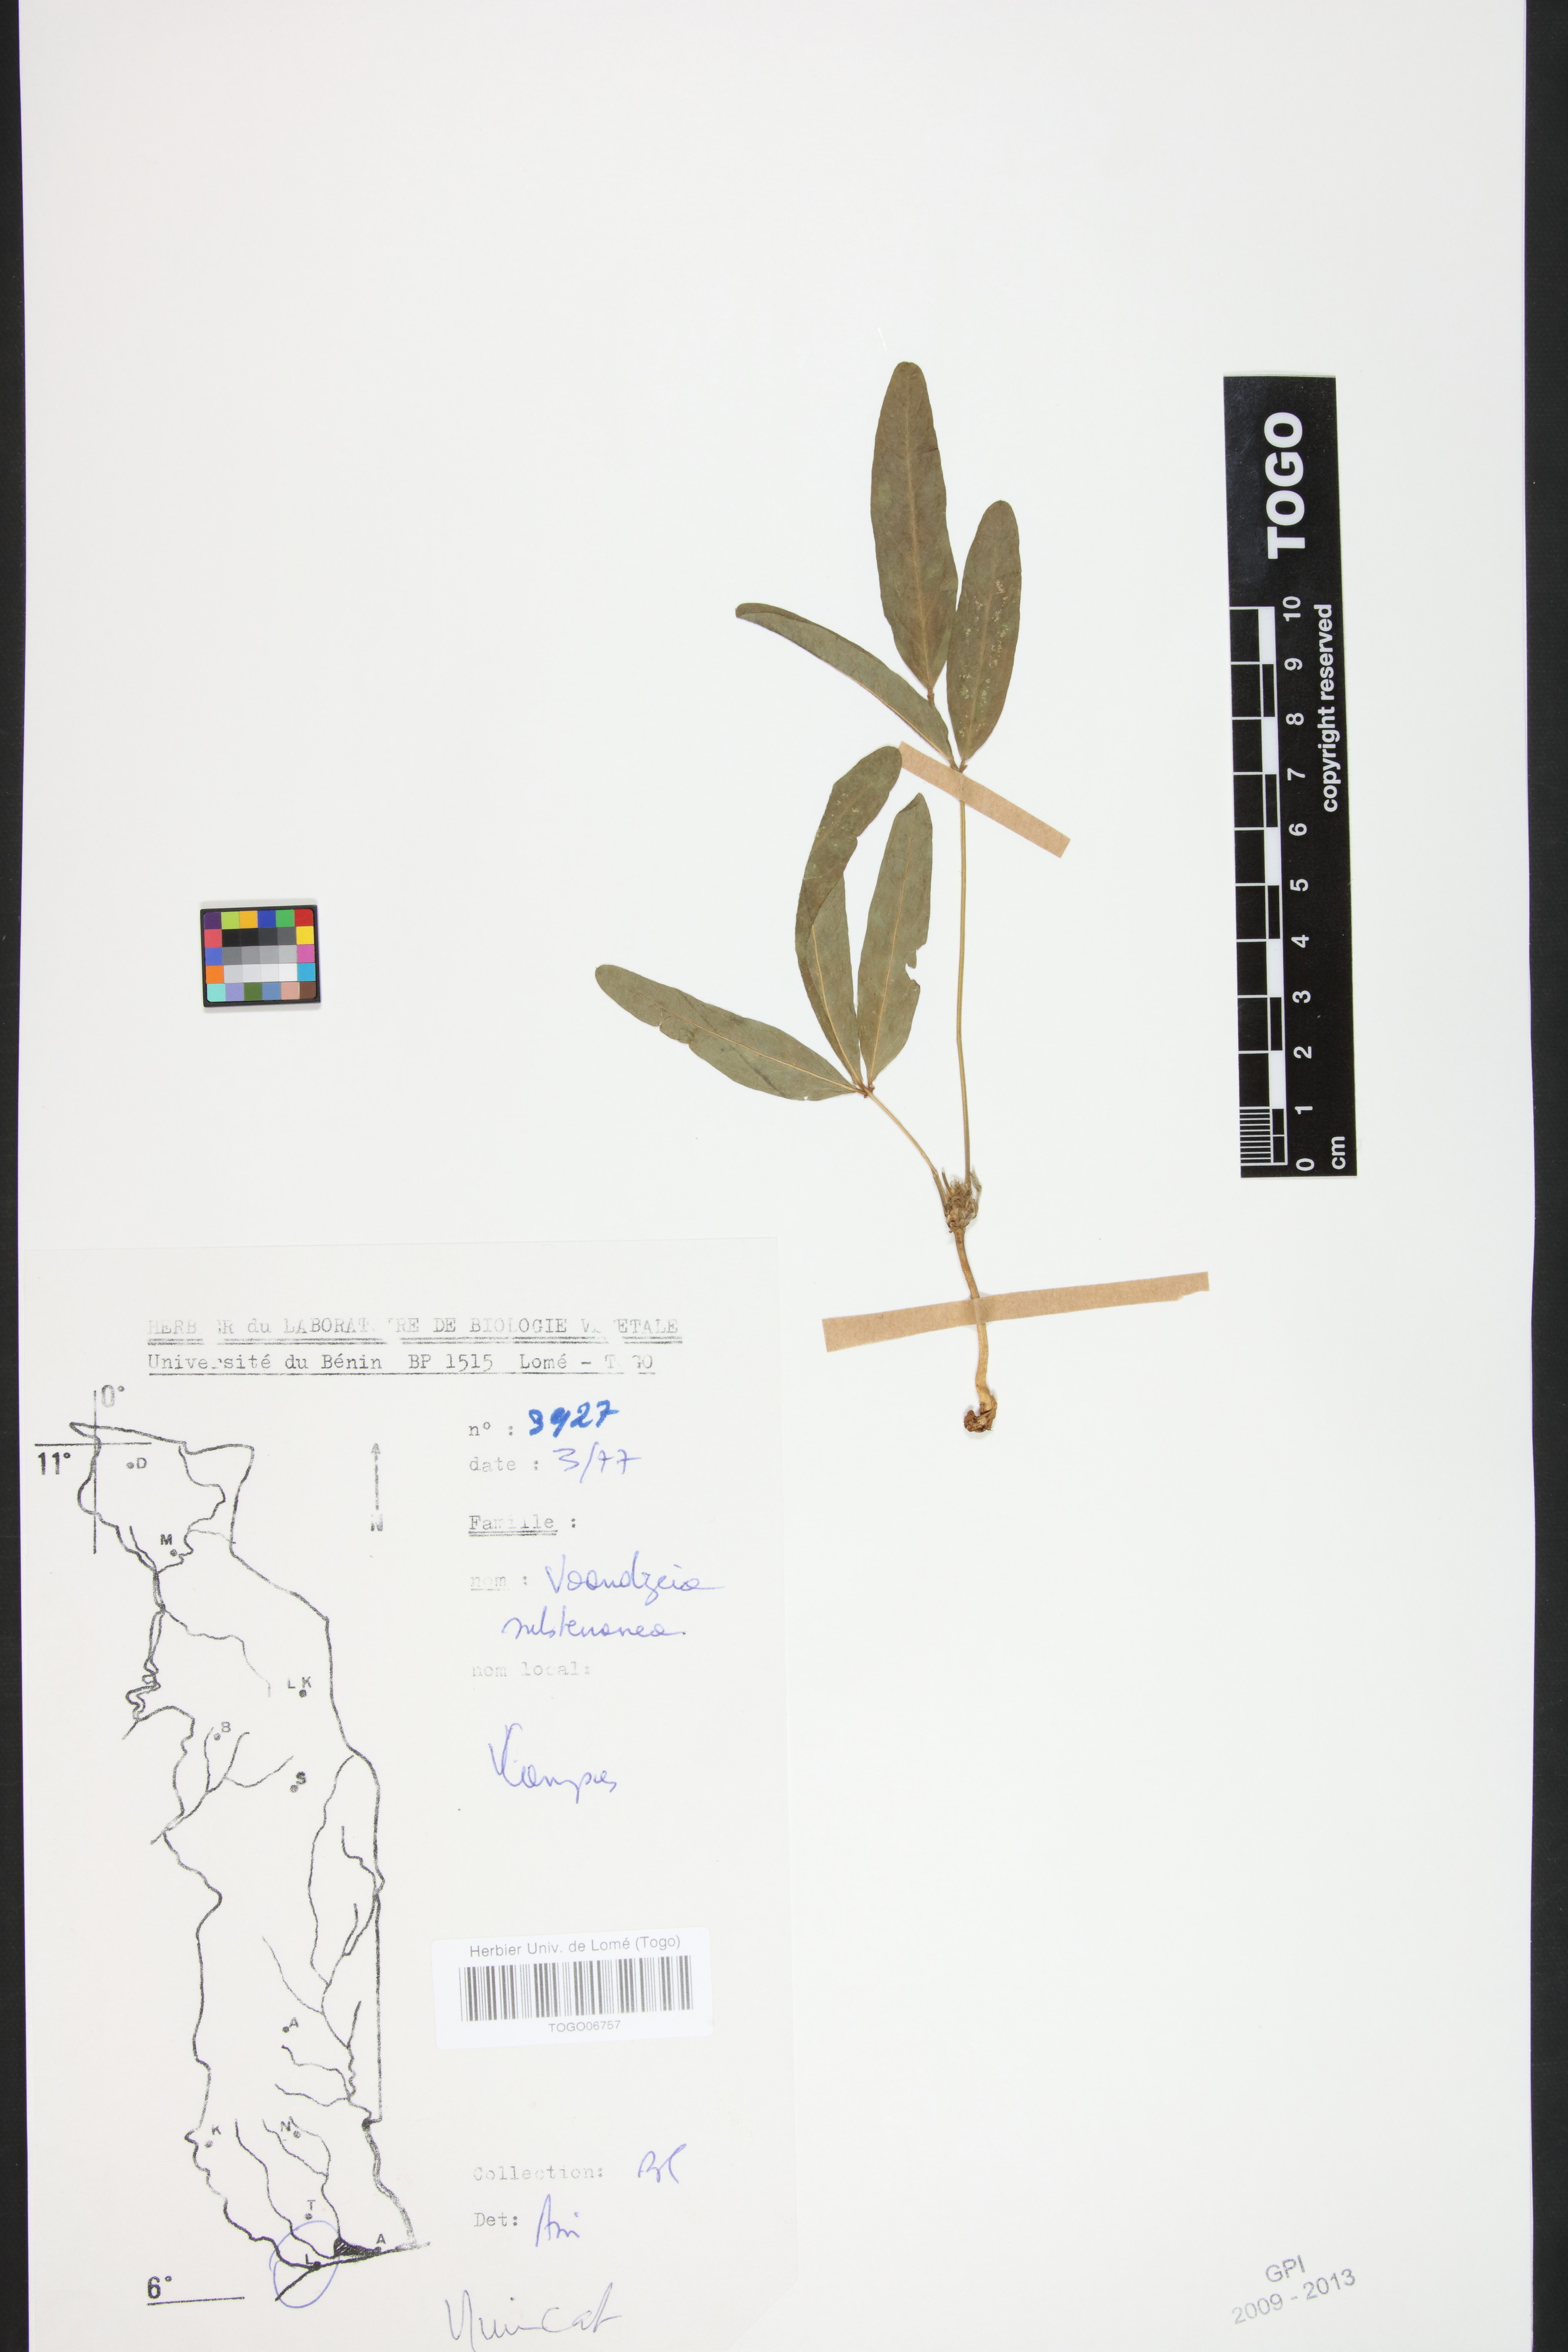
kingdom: Plantae
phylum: Tracheophyta
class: Magnoliopsida
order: Fabales
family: Fabaceae
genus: Vigna
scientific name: Vigna subterranea
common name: Bambara groundnut
